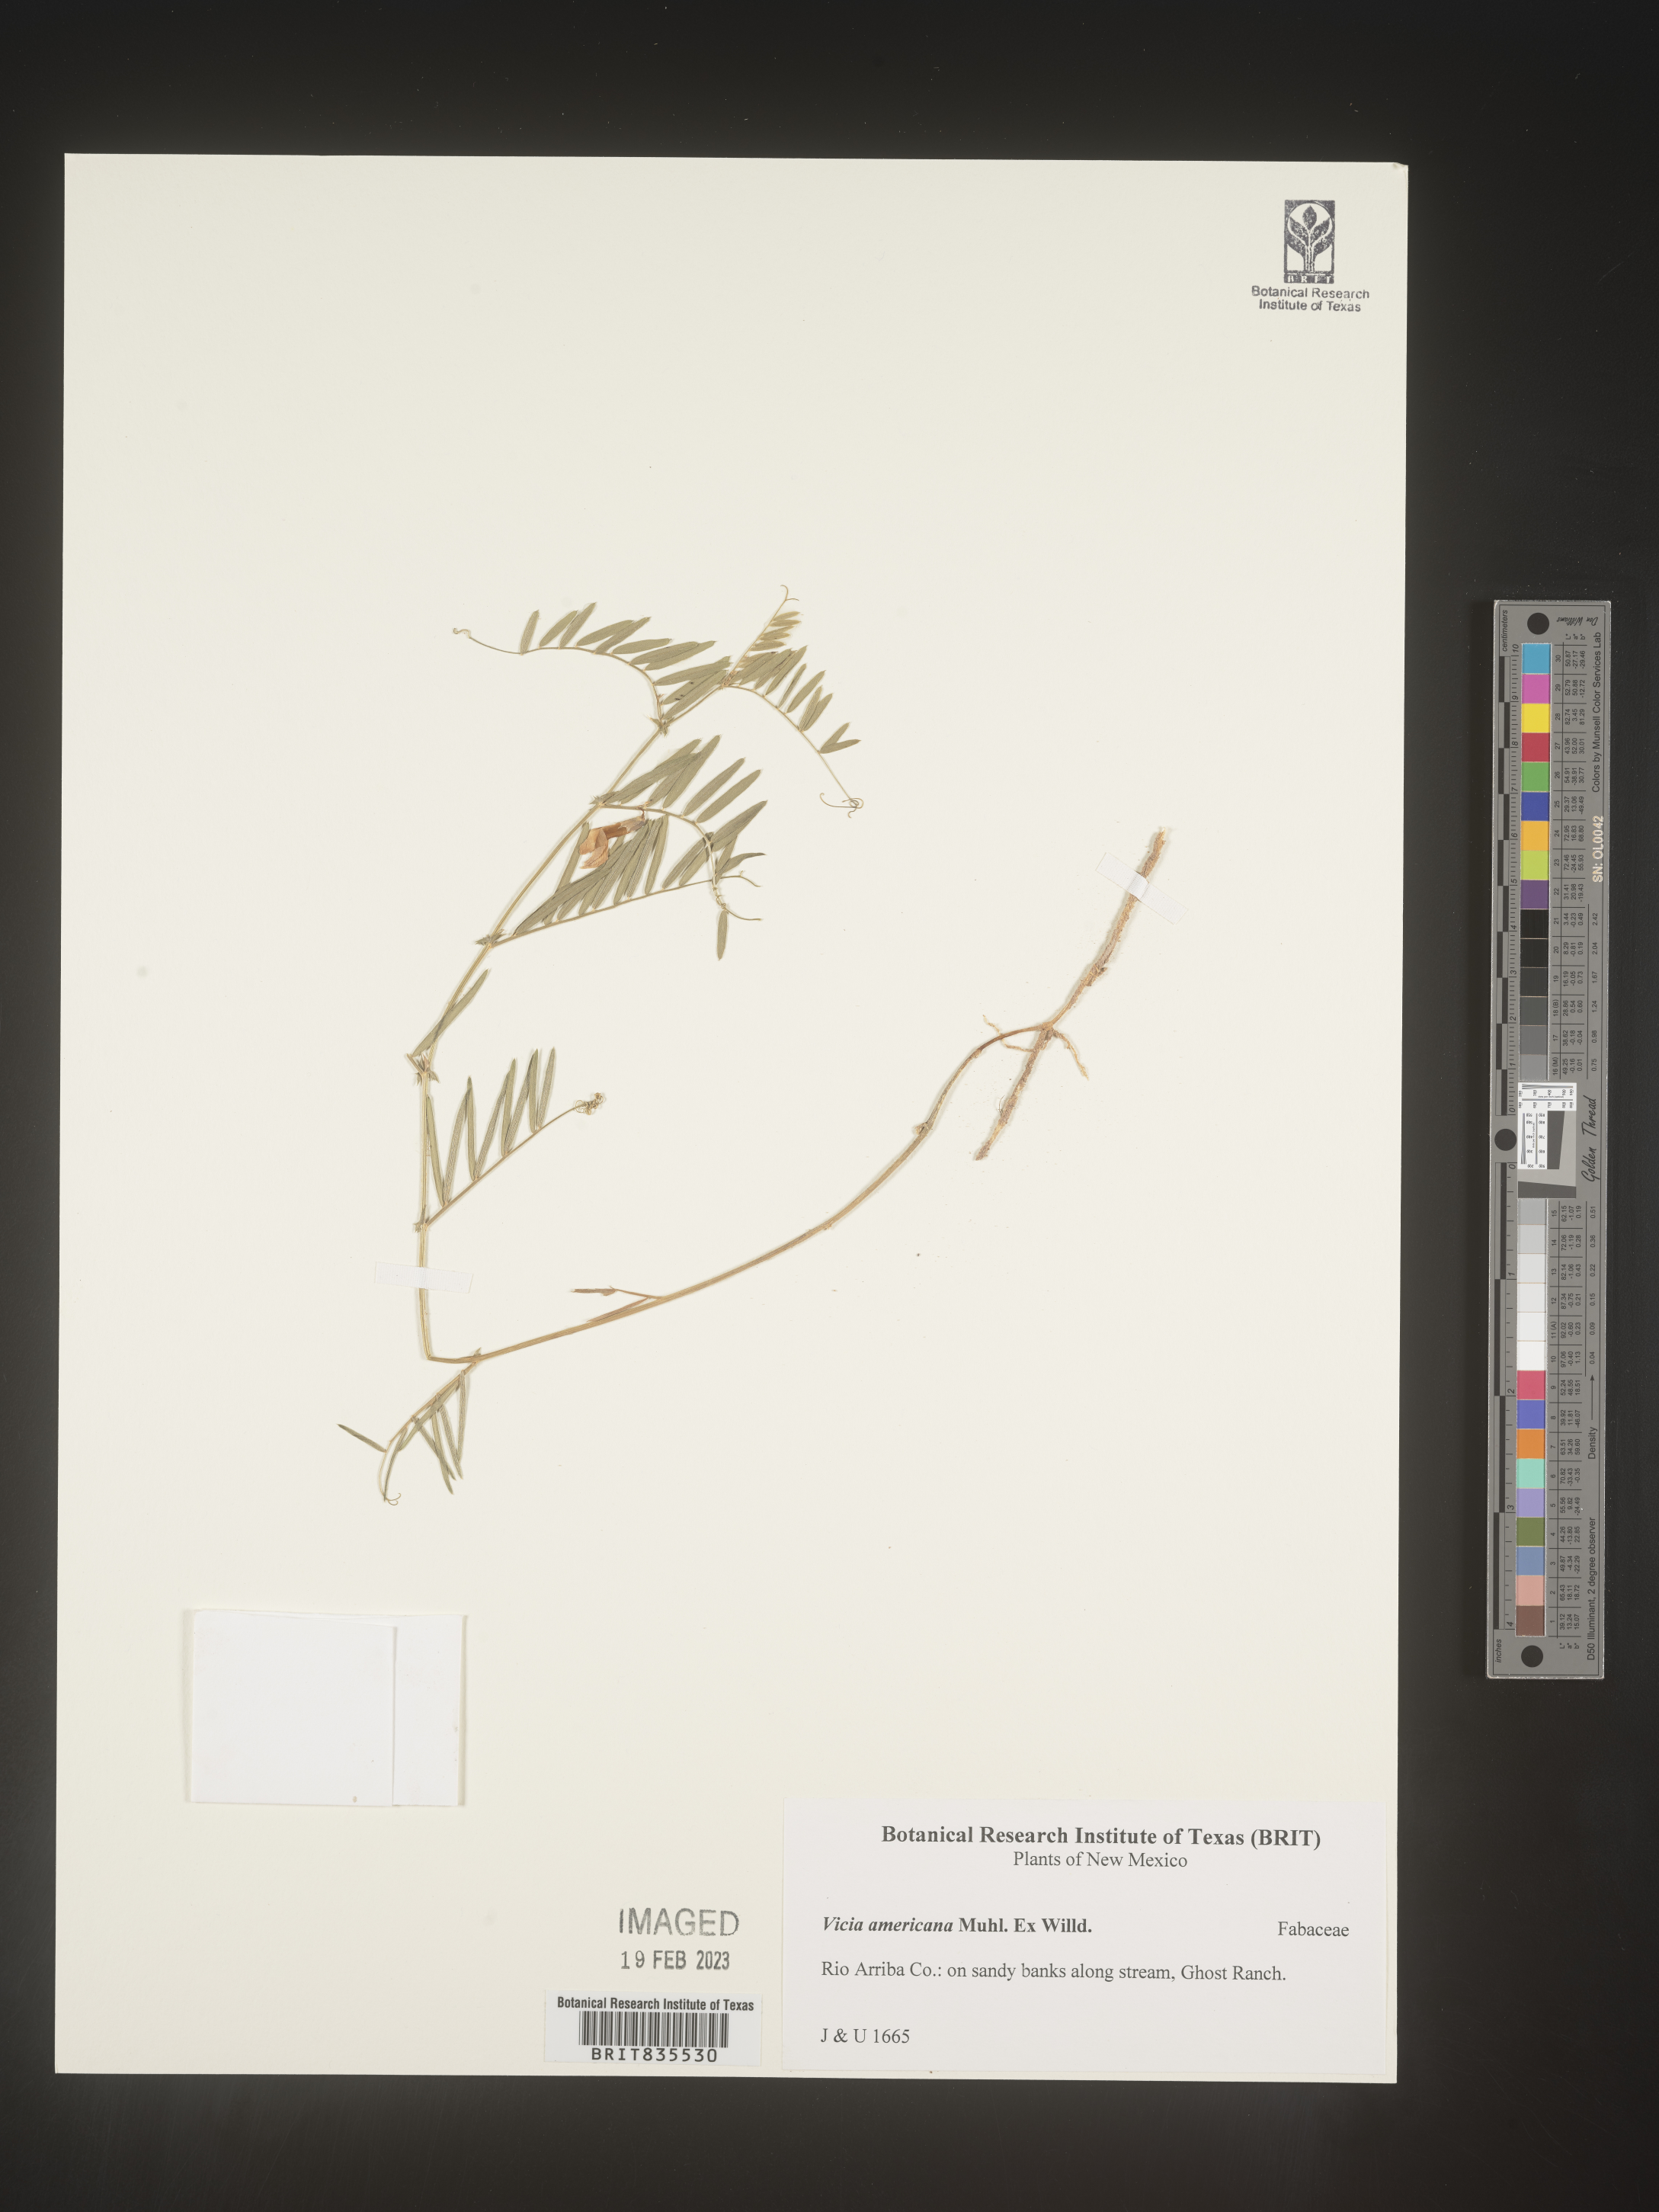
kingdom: Plantae
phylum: Tracheophyta
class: Magnoliopsida
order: Fabales
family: Fabaceae
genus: Vicia
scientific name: Vicia americana
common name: American vetch
